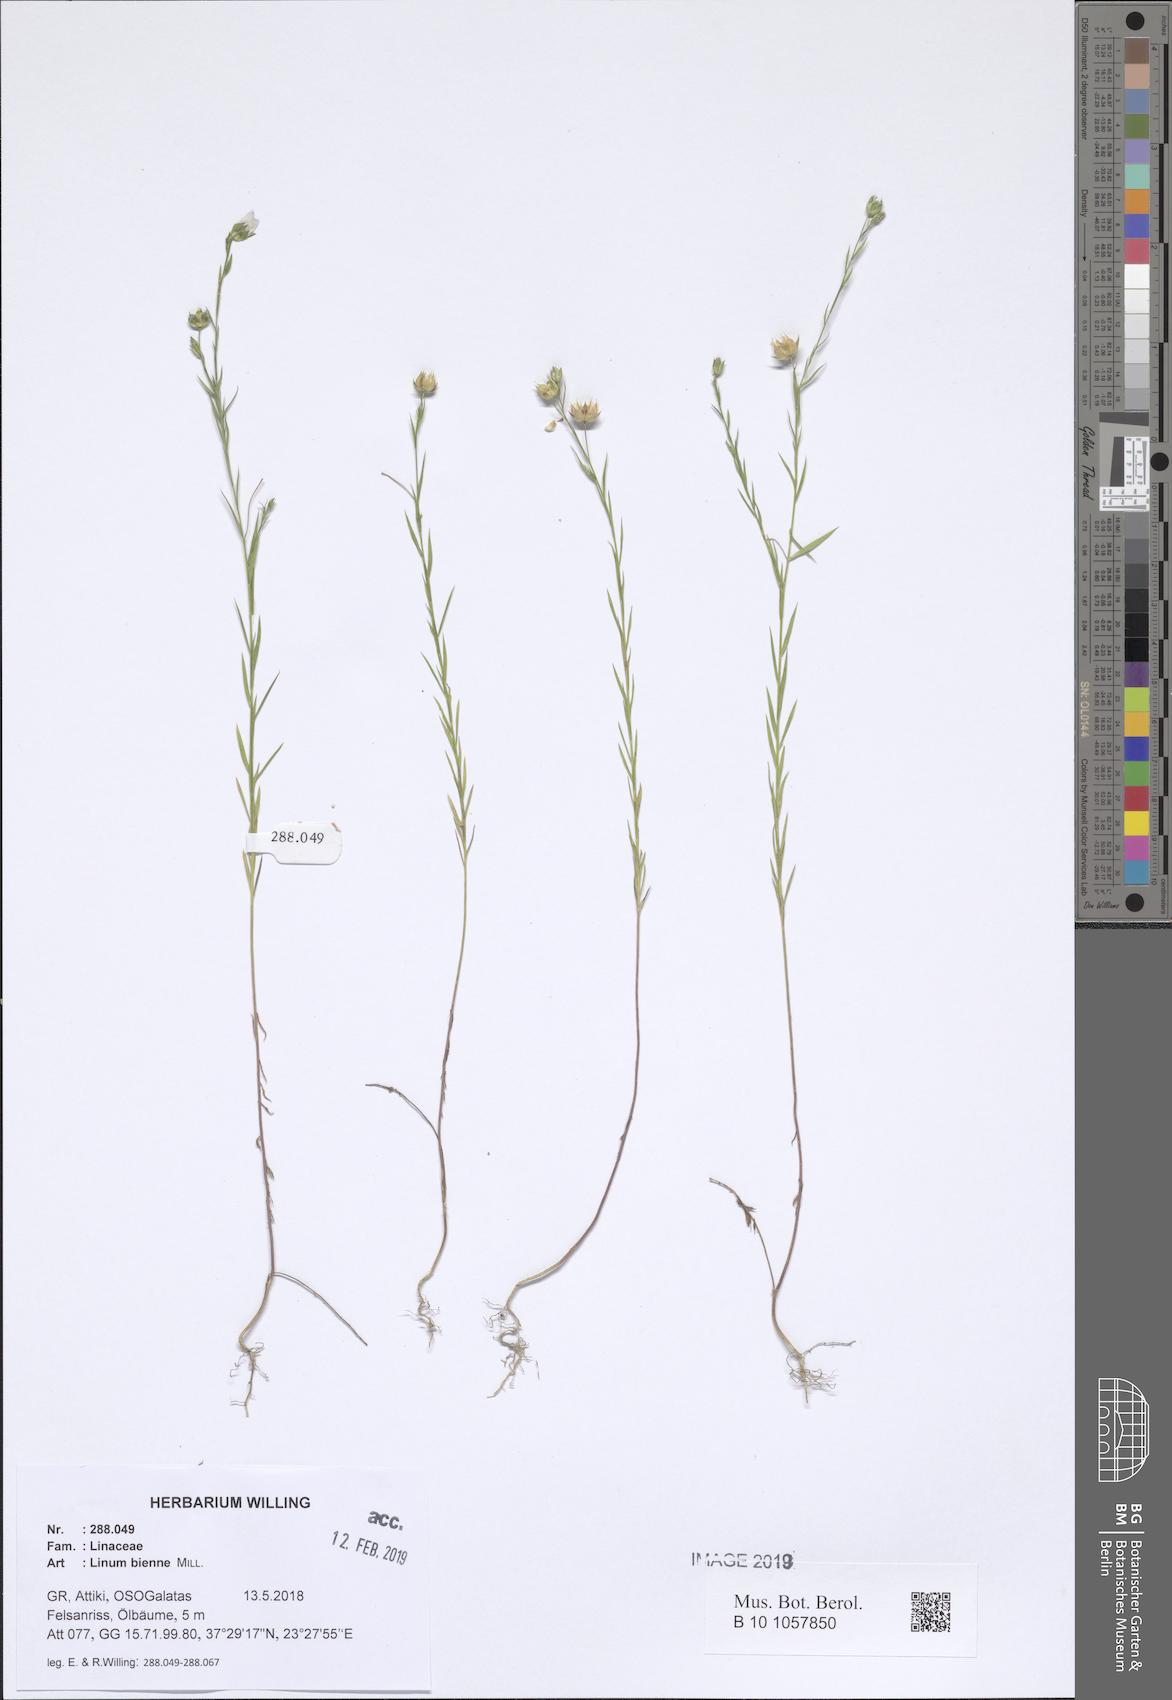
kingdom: Plantae
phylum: Tracheophyta
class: Magnoliopsida
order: Malpighiales
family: Linaceae
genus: Linum
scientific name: Linum bienne
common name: Pale flax
